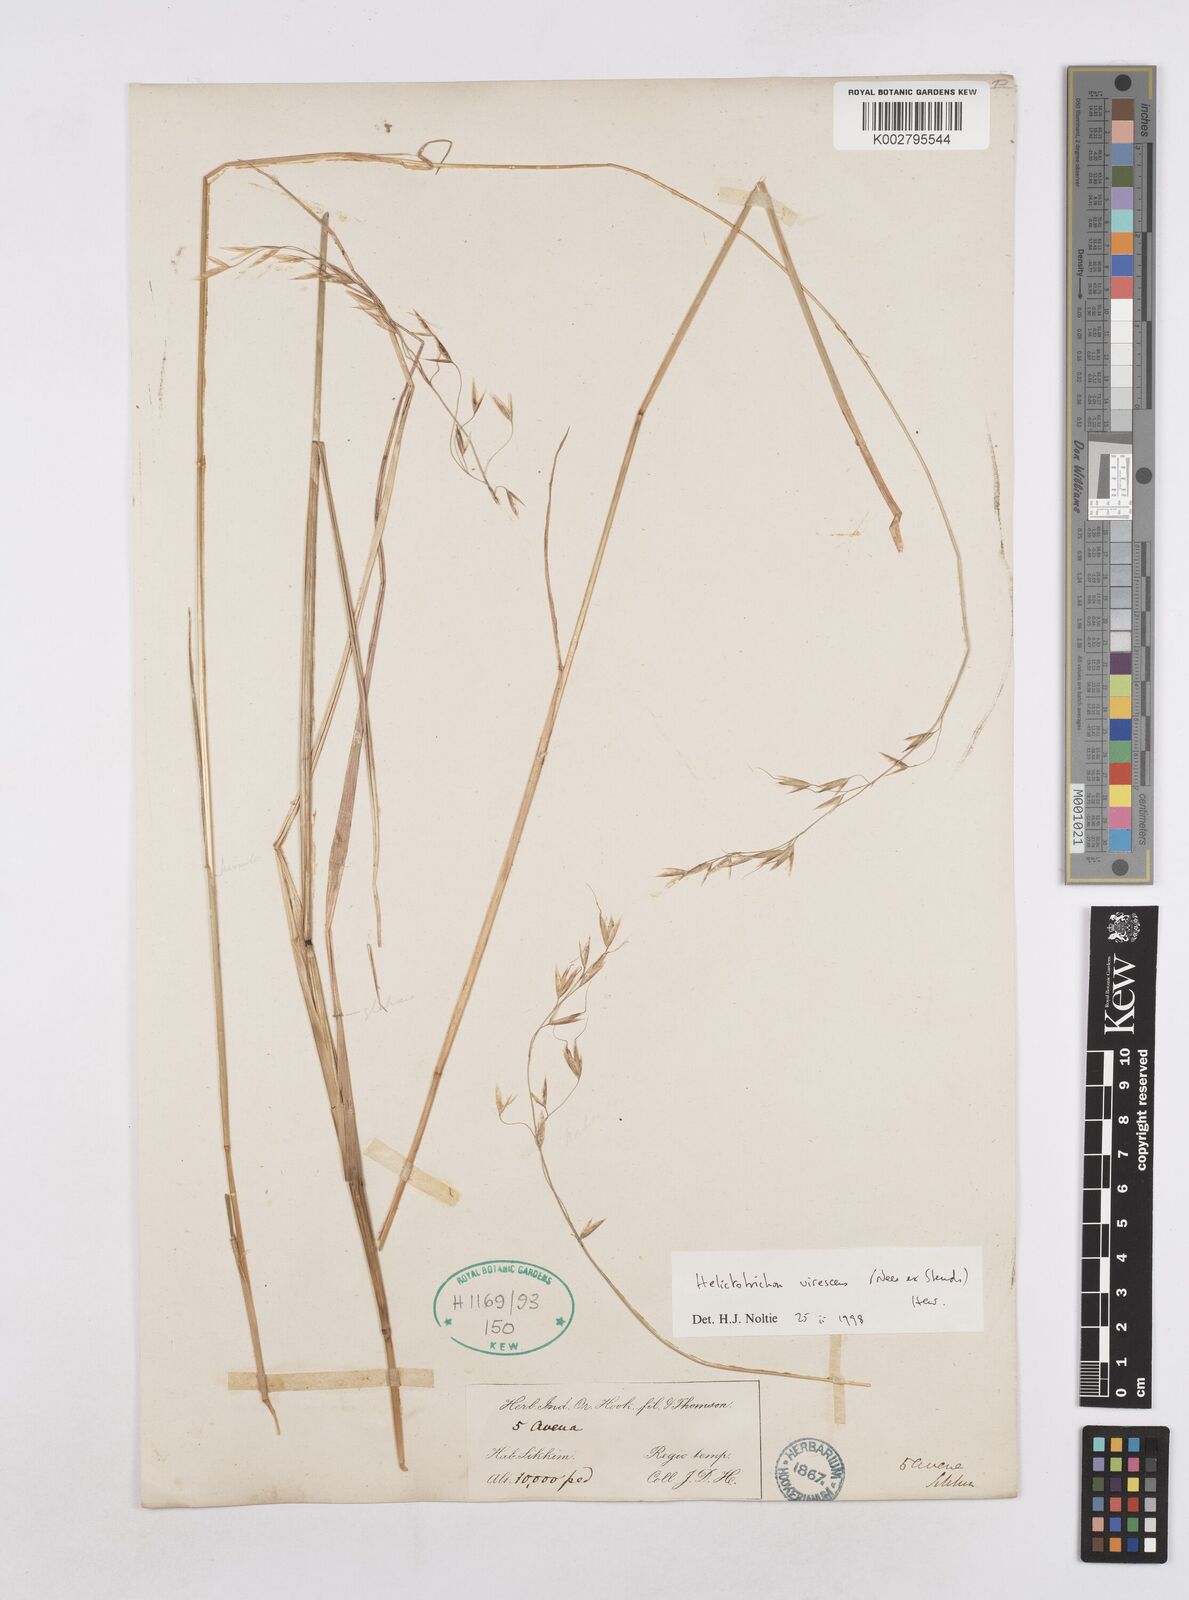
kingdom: Plantae
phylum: Tracheophyta
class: Liliopsida
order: Poales
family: Poaceae
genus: Trisetopsis
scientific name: Trisetopsis junghuhnii
